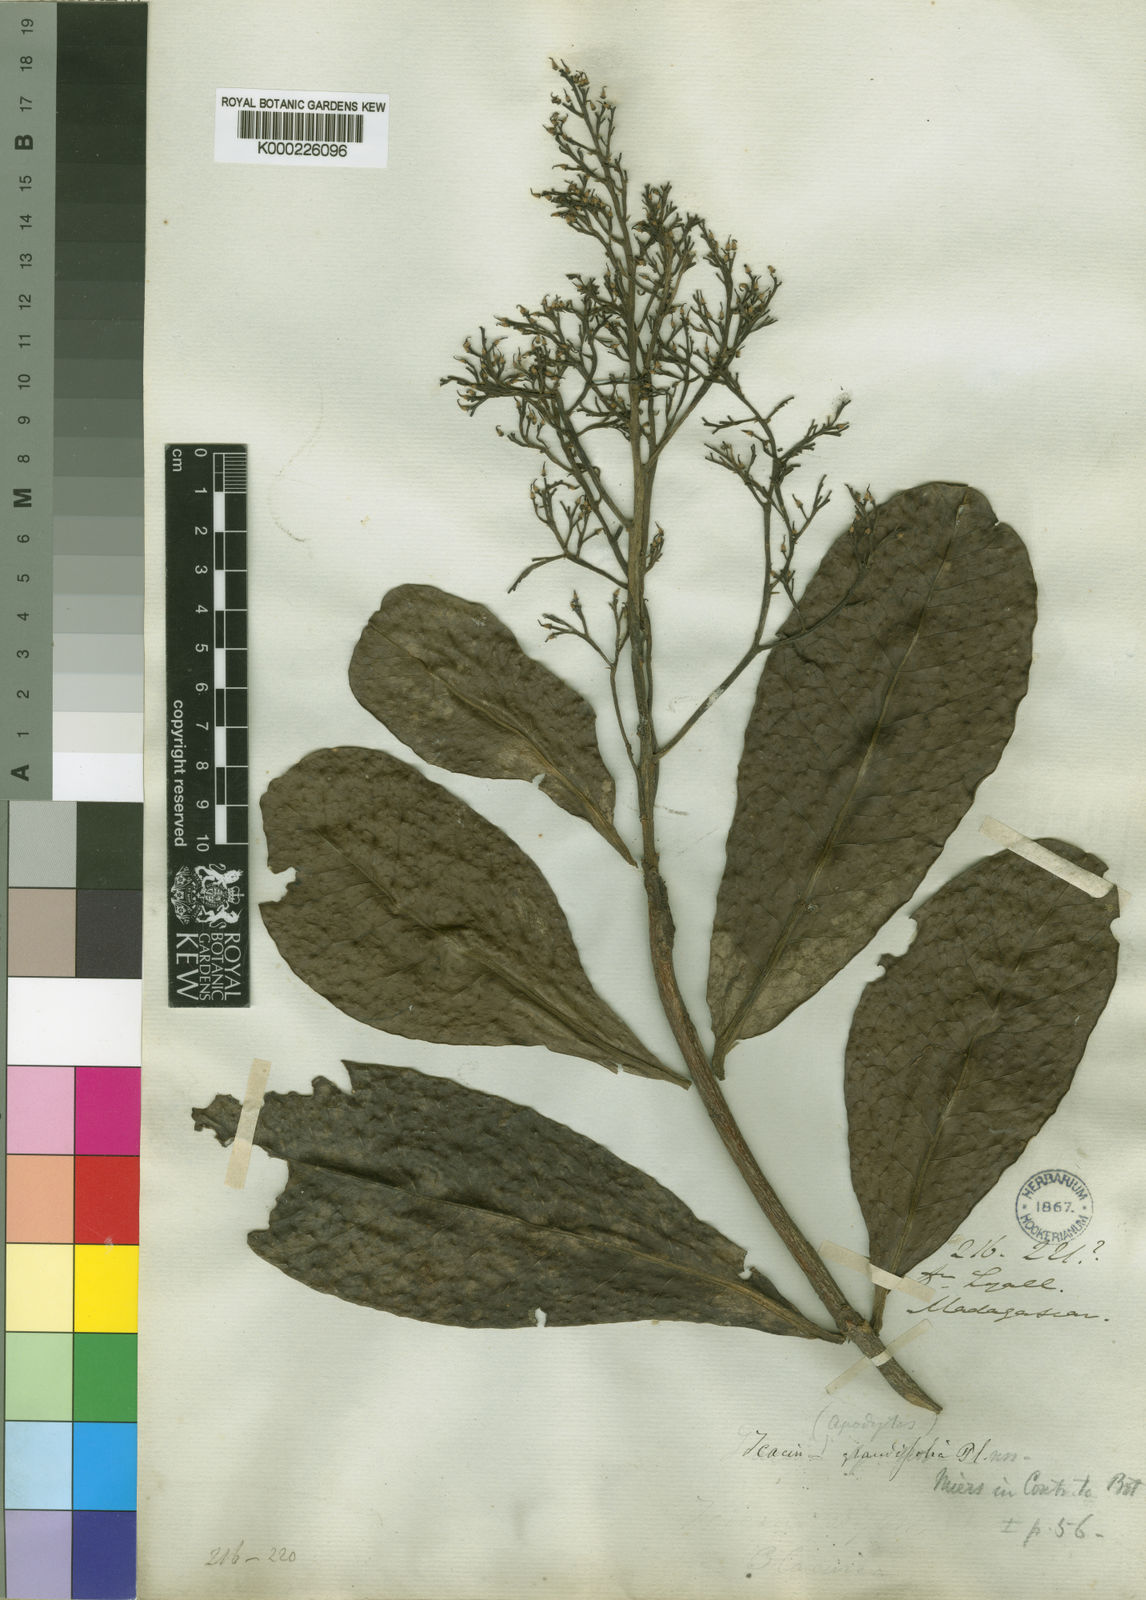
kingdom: Plantae
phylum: Tracheophyta
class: Magnoliopsida
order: Metteniusales
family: Metteniusaceae
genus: Apodytes
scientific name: Apodytes grandifolia
